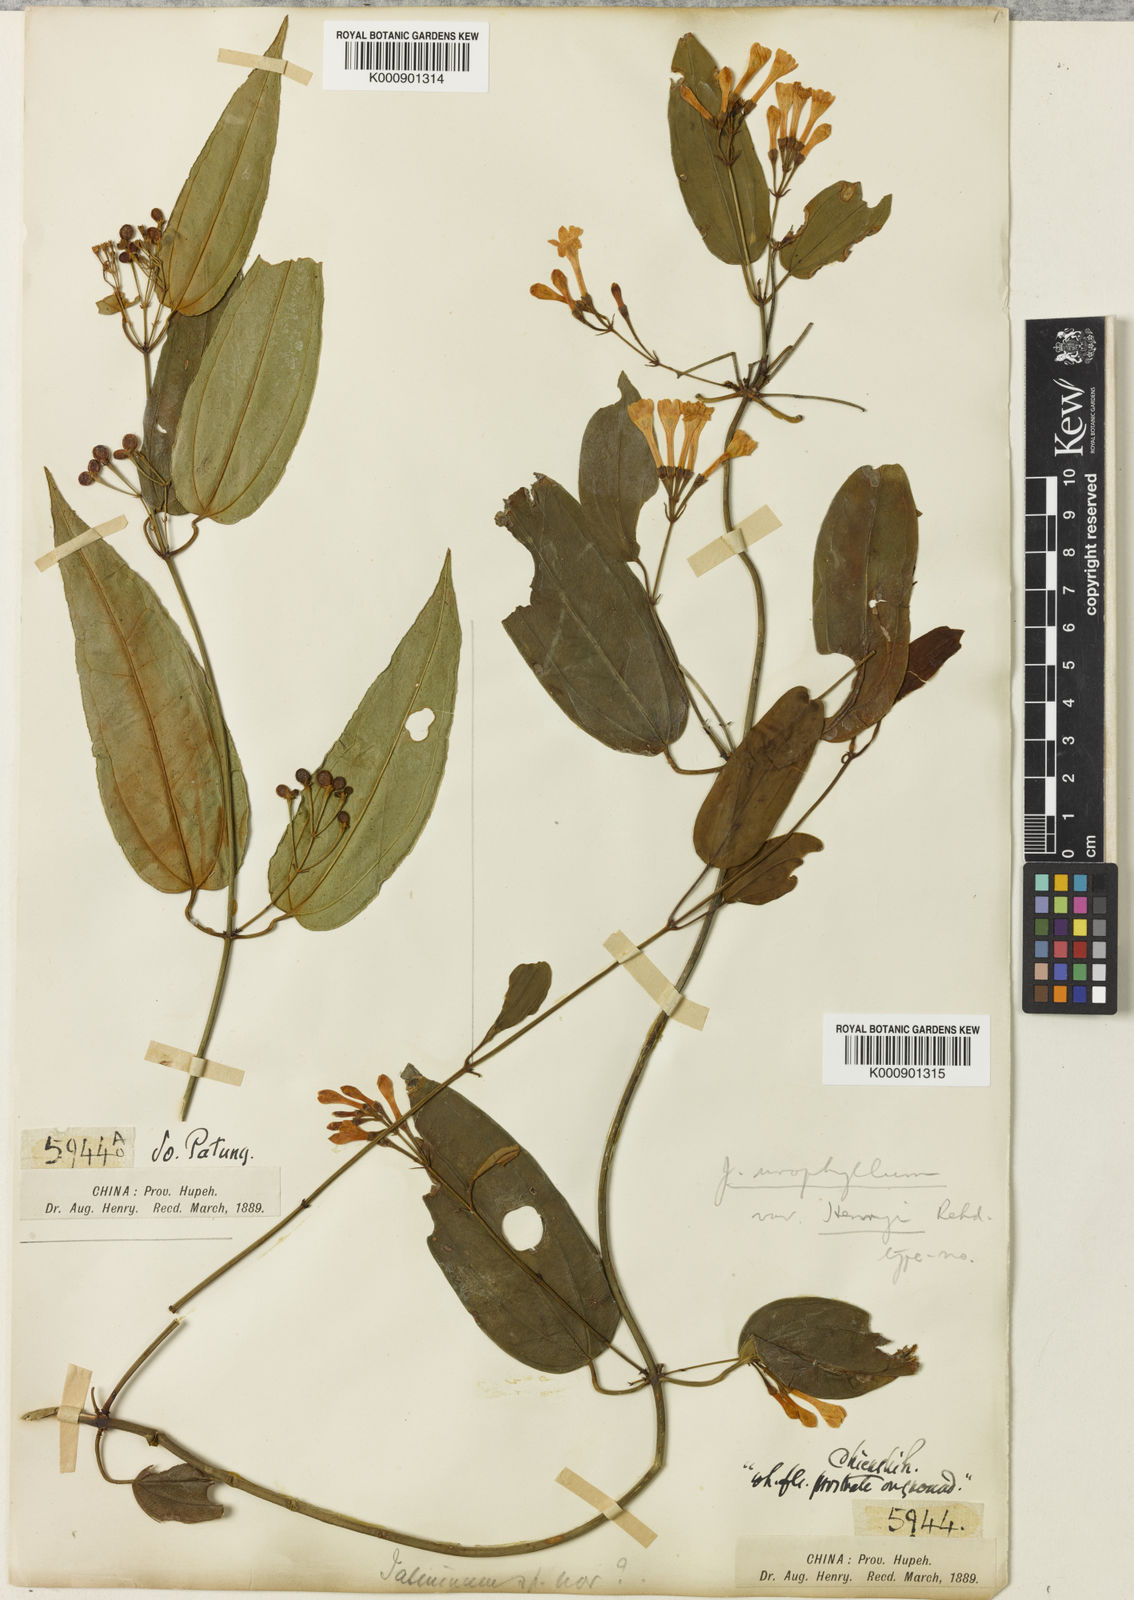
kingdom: Plantae
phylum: Tracheophyta
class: Magnoliopsida
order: Lamiales
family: Oleaceae
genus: Jasminum
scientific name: Jasminum urophyllum
